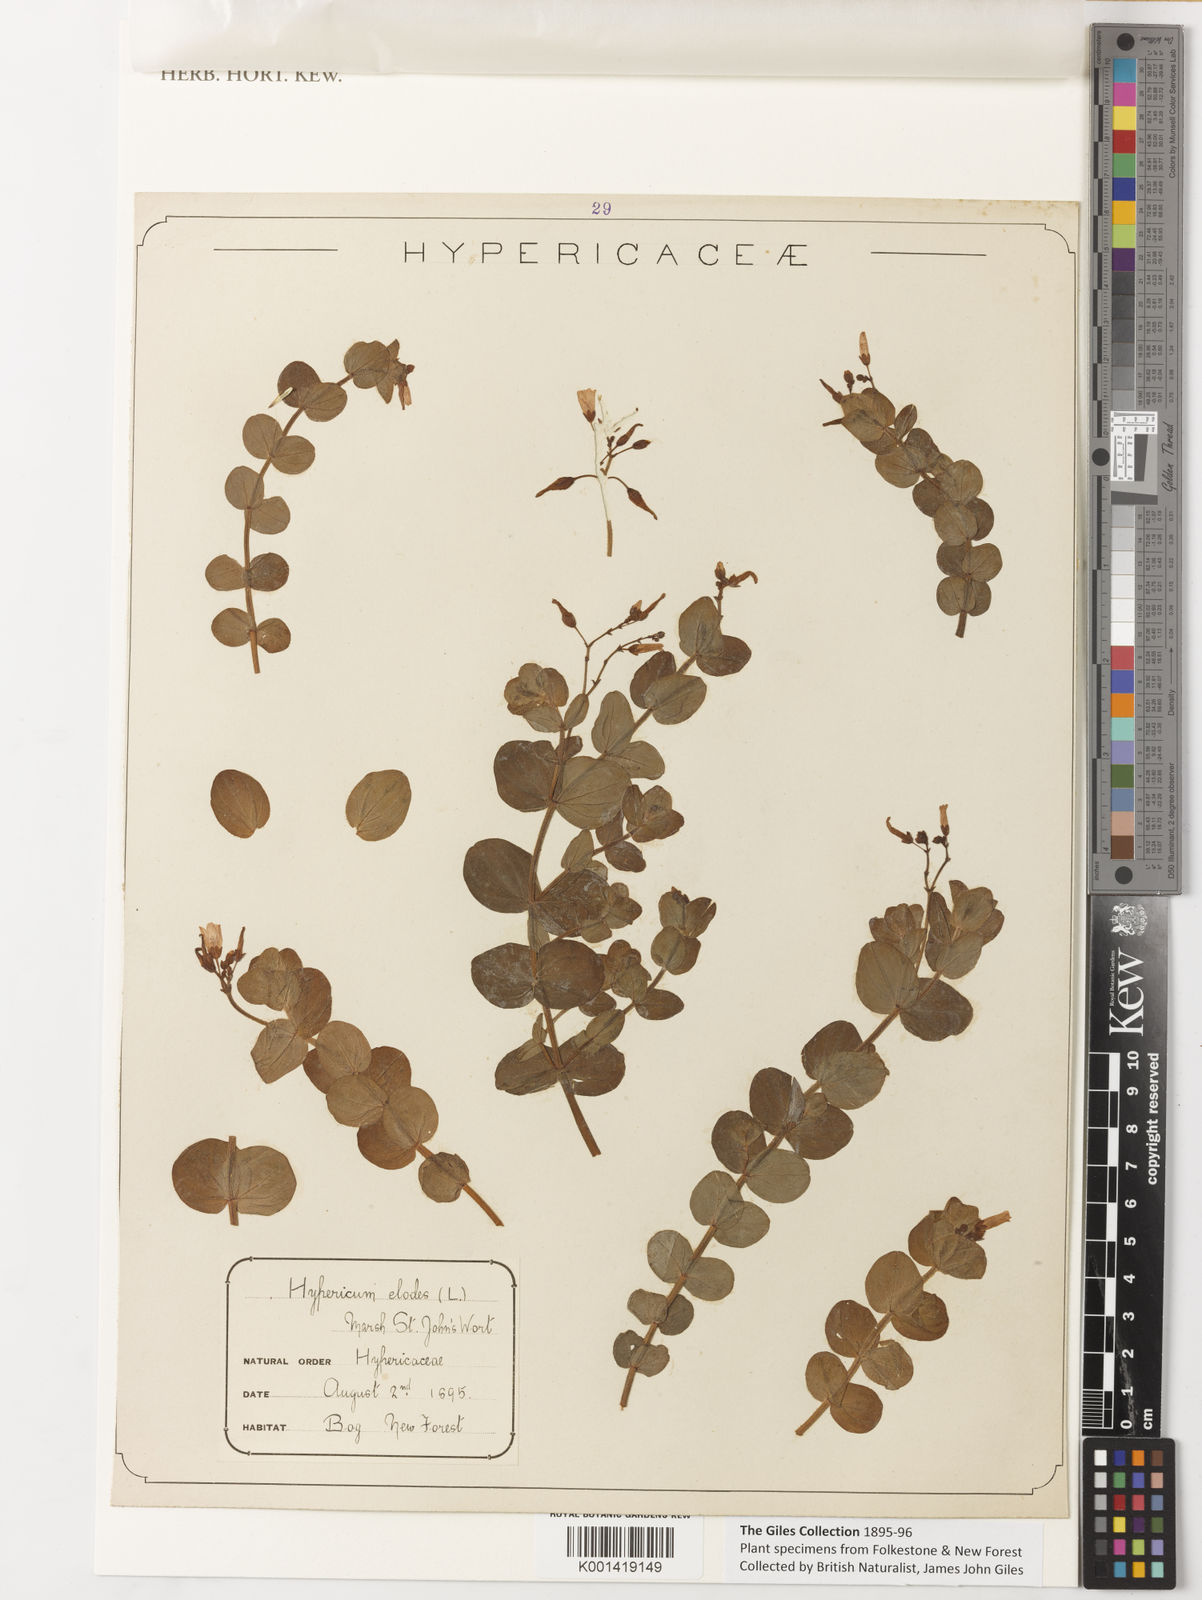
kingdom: Plantae
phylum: Tracheophyta
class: Magnoliopsida
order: Malpighiales
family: Hypericaceae
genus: Hypericum
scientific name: Hypericum elodes
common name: Marsh st. john's-wort
